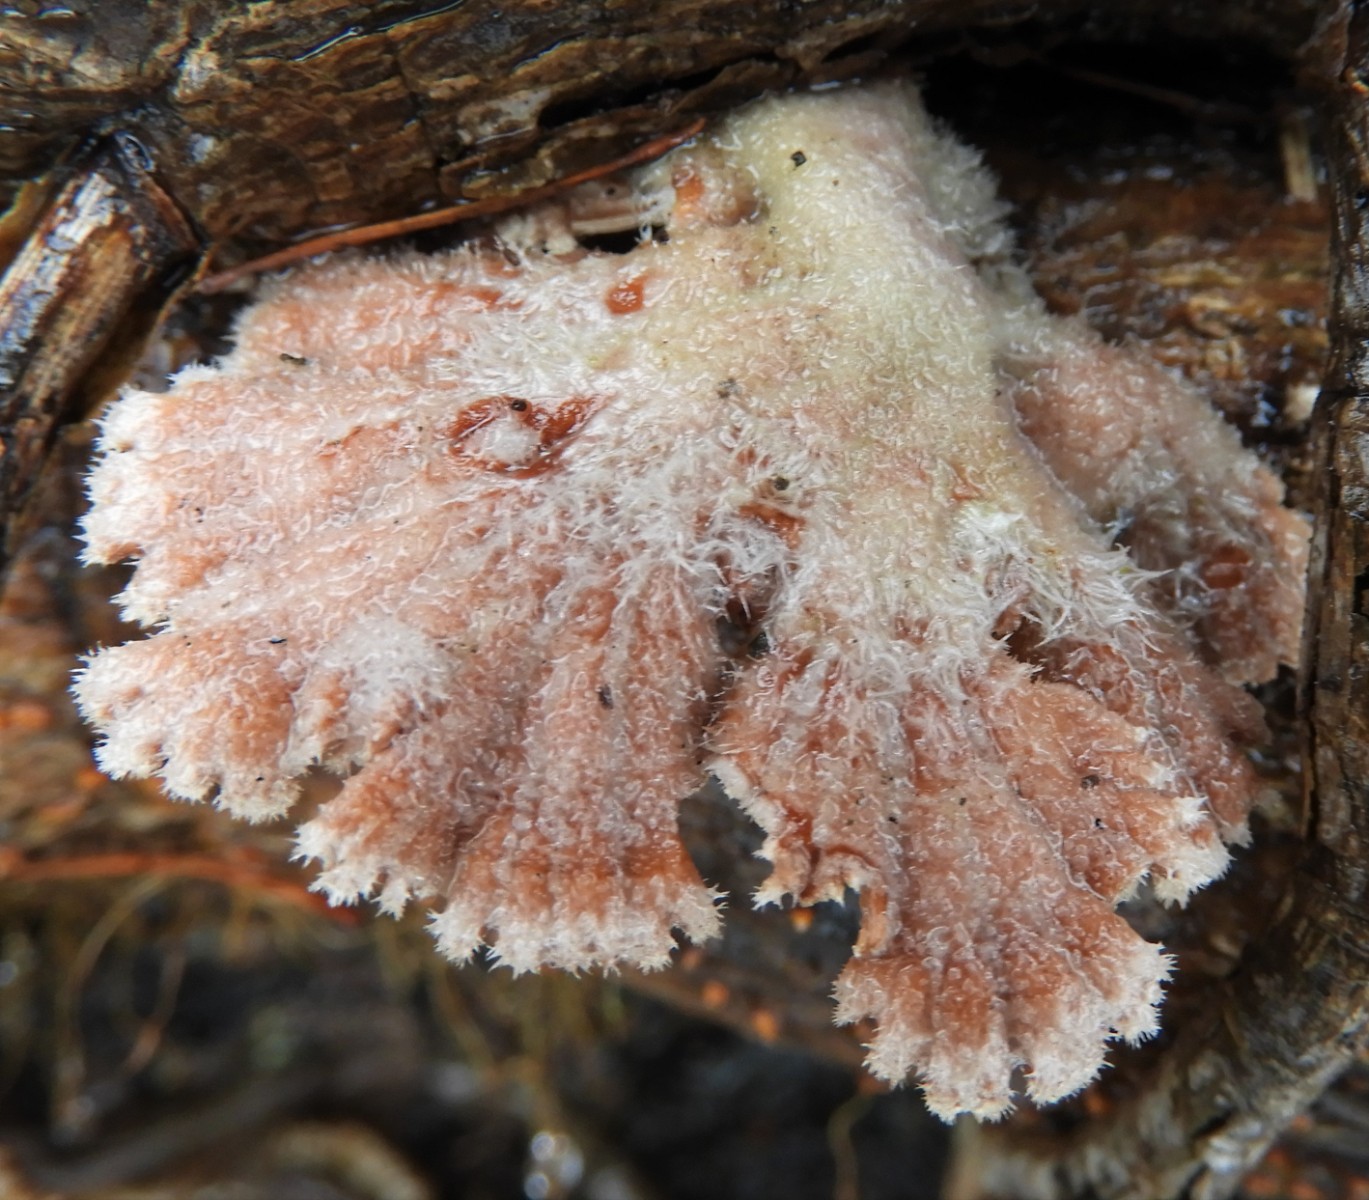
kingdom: Fungi
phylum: Basidiomycota
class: Agaricomycetes
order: Agaricales
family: Schizophyllaceae
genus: Schizophyllum
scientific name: Schizophyllum commune
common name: kløvblad
